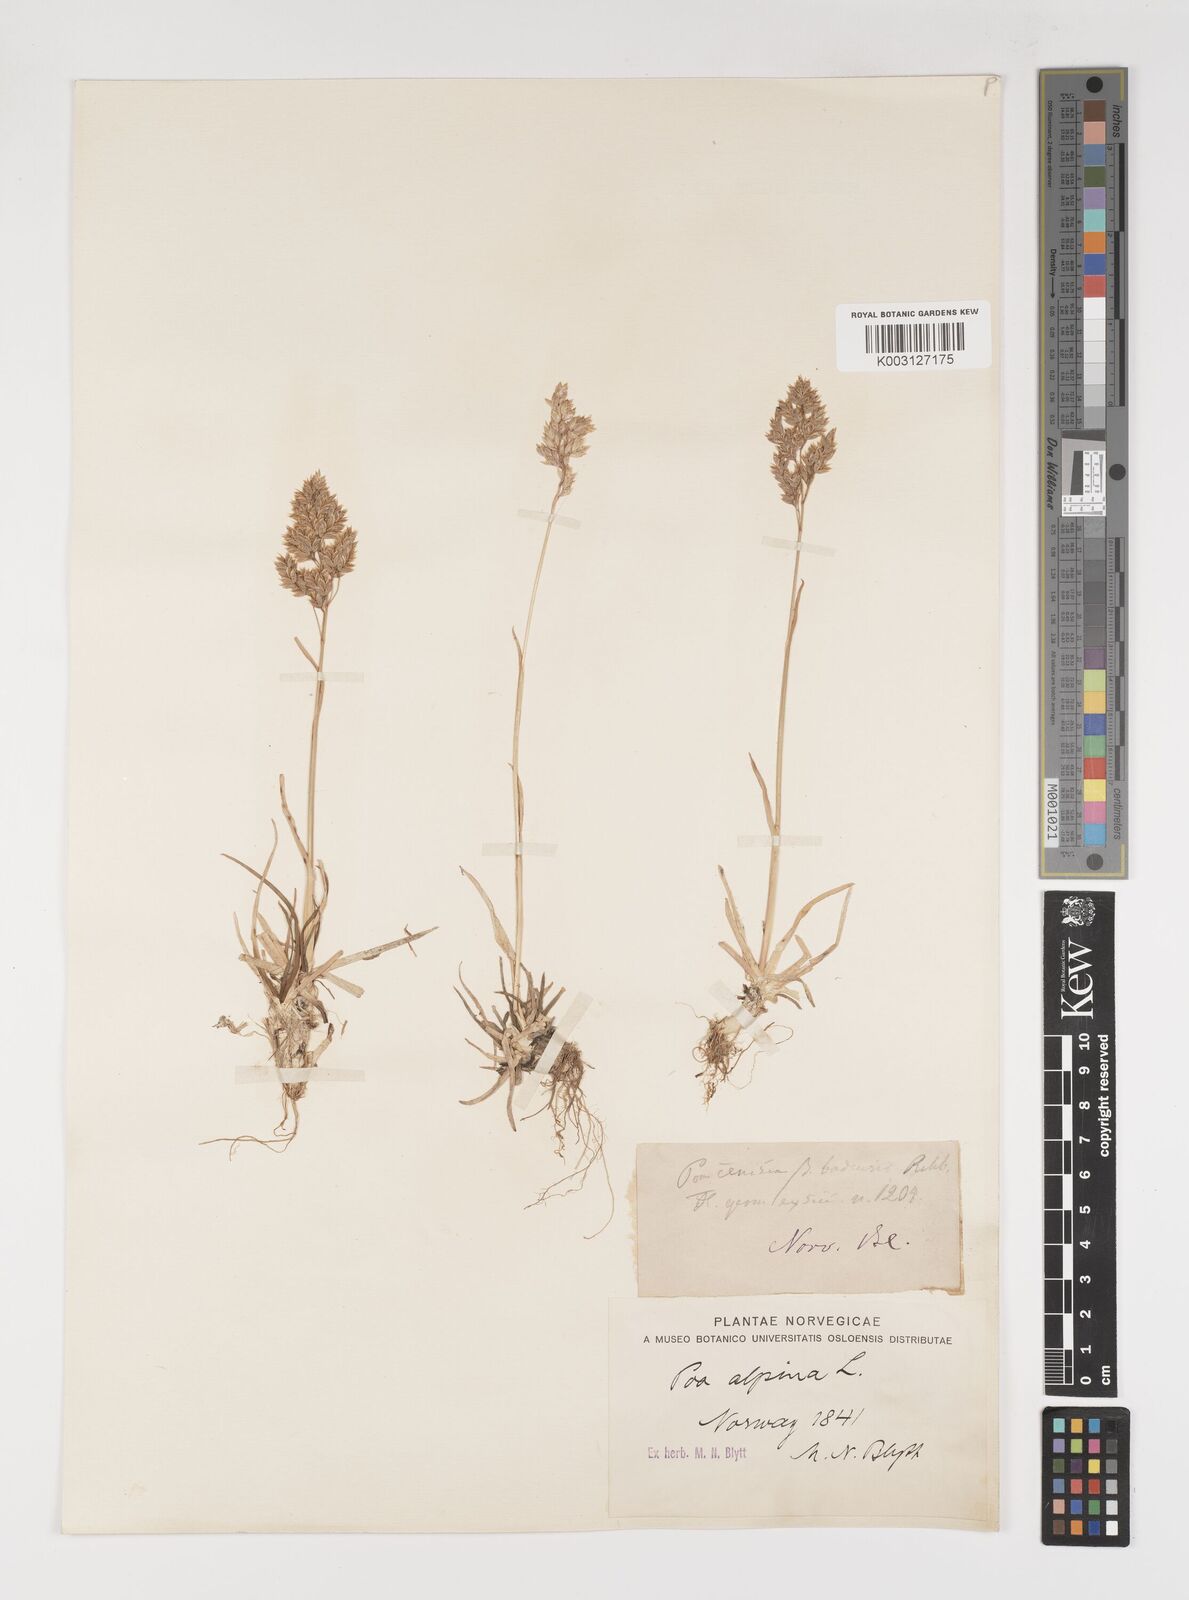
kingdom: Plantae
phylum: Tracheophyta
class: Liliopsida
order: Poales
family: Poaceae
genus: Poa
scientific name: Poa alpina
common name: Alpine bluegrass
